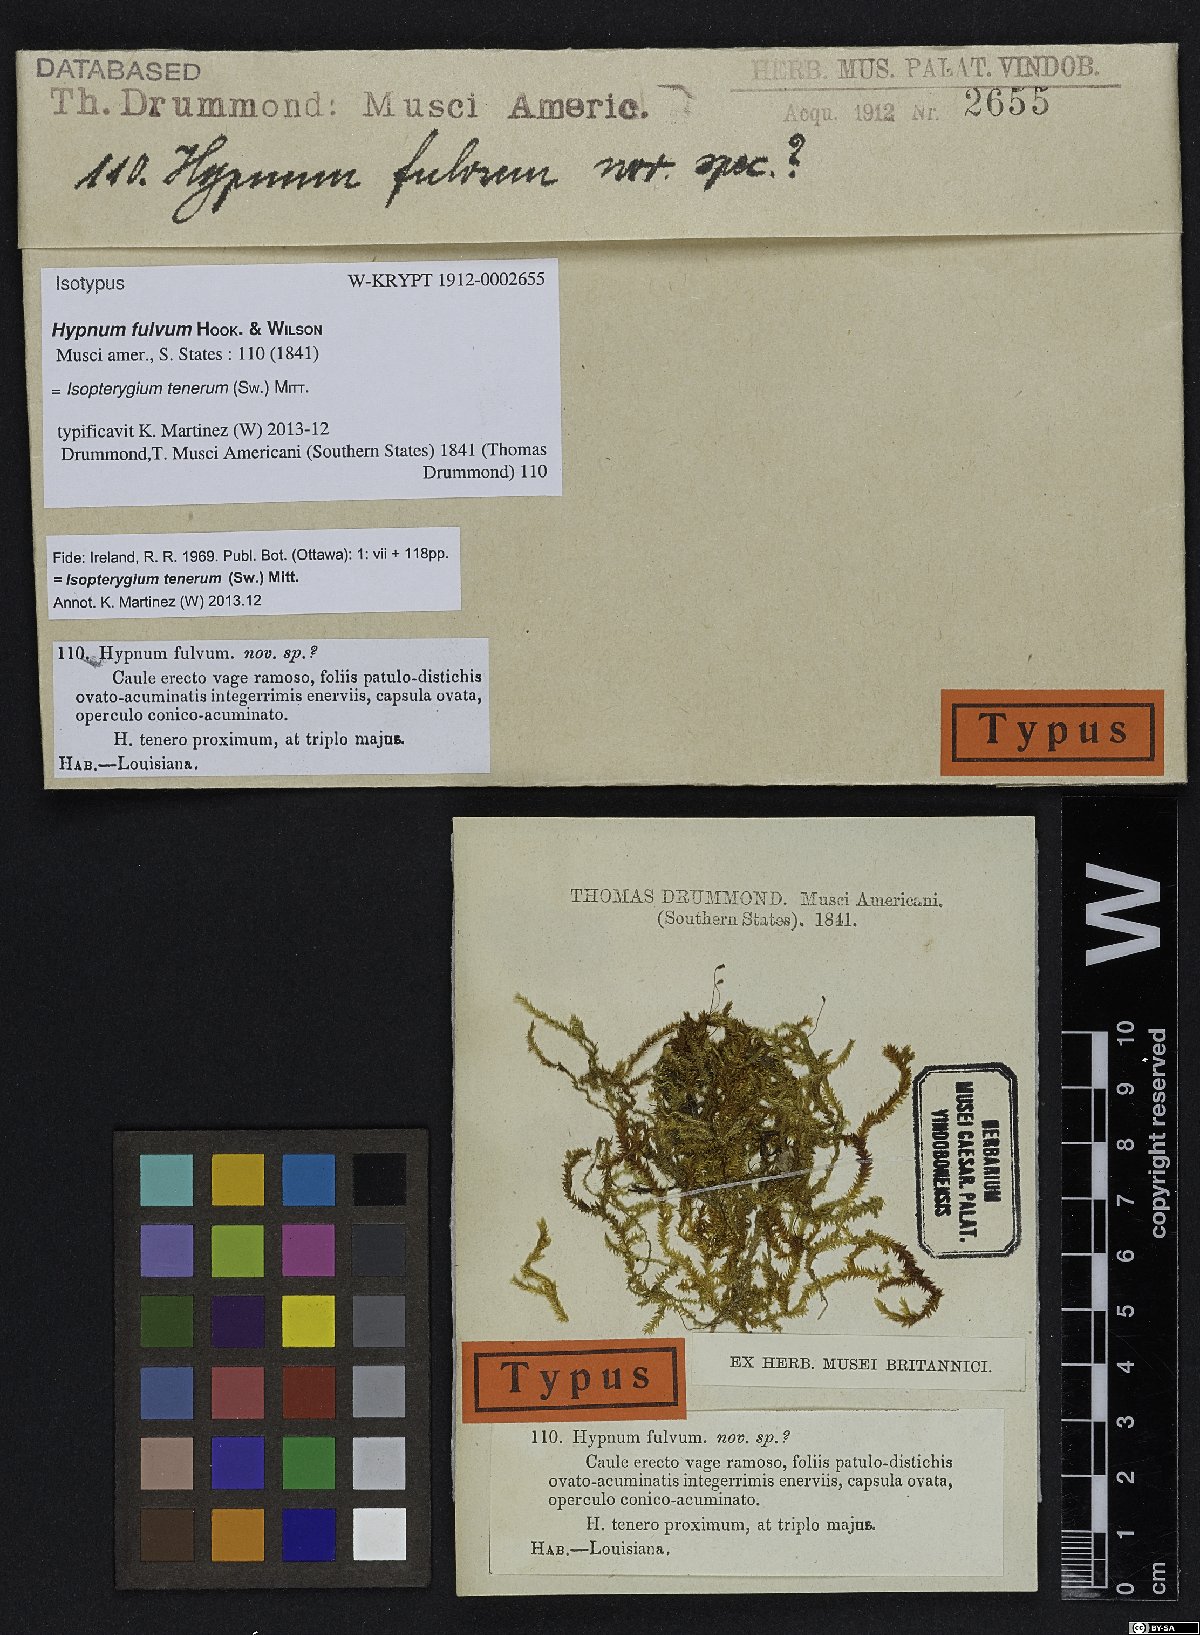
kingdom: Plantae
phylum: Bryophyta
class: Bryopsida
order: Hypnales
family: Pylaisiadelphaceae
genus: Isopterygium
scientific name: Isopterygium tenerum
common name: Isopterygium moss
